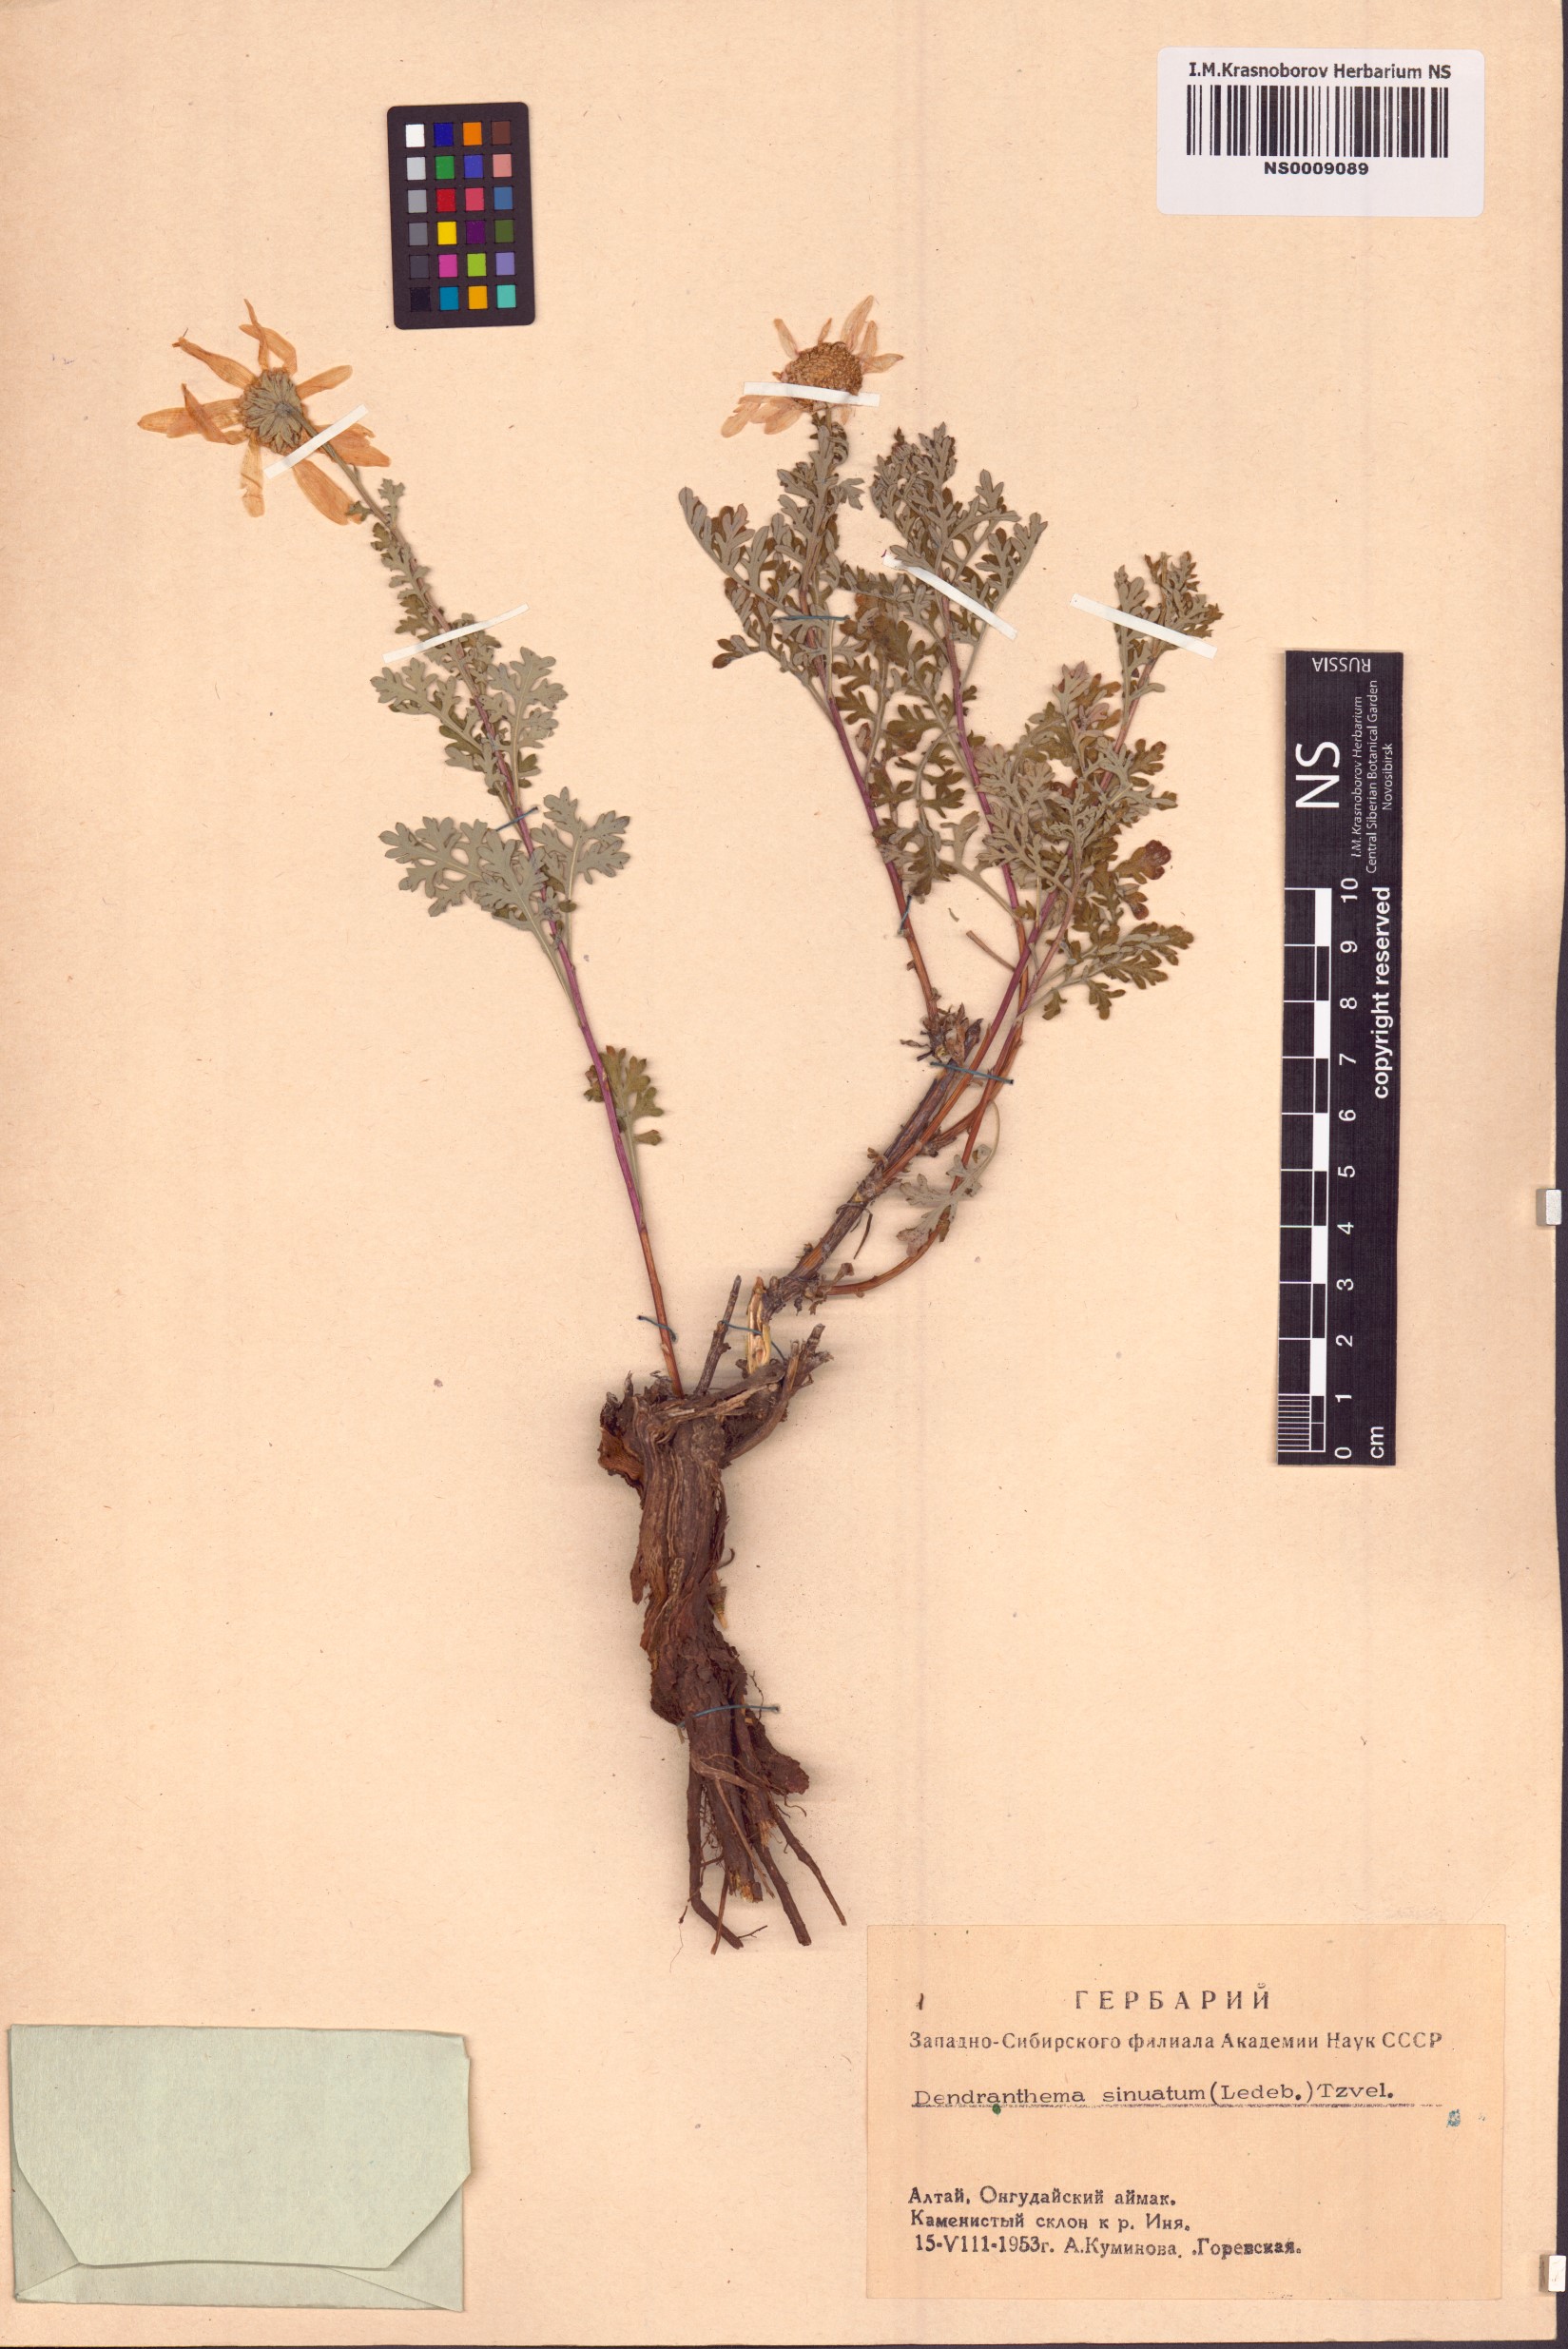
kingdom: Plantae
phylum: Tracheophyta
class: Magnoliopsida
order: Asterales
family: Asteraceae
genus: Chrysanthemum
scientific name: Chrysanthemum sinuatum
